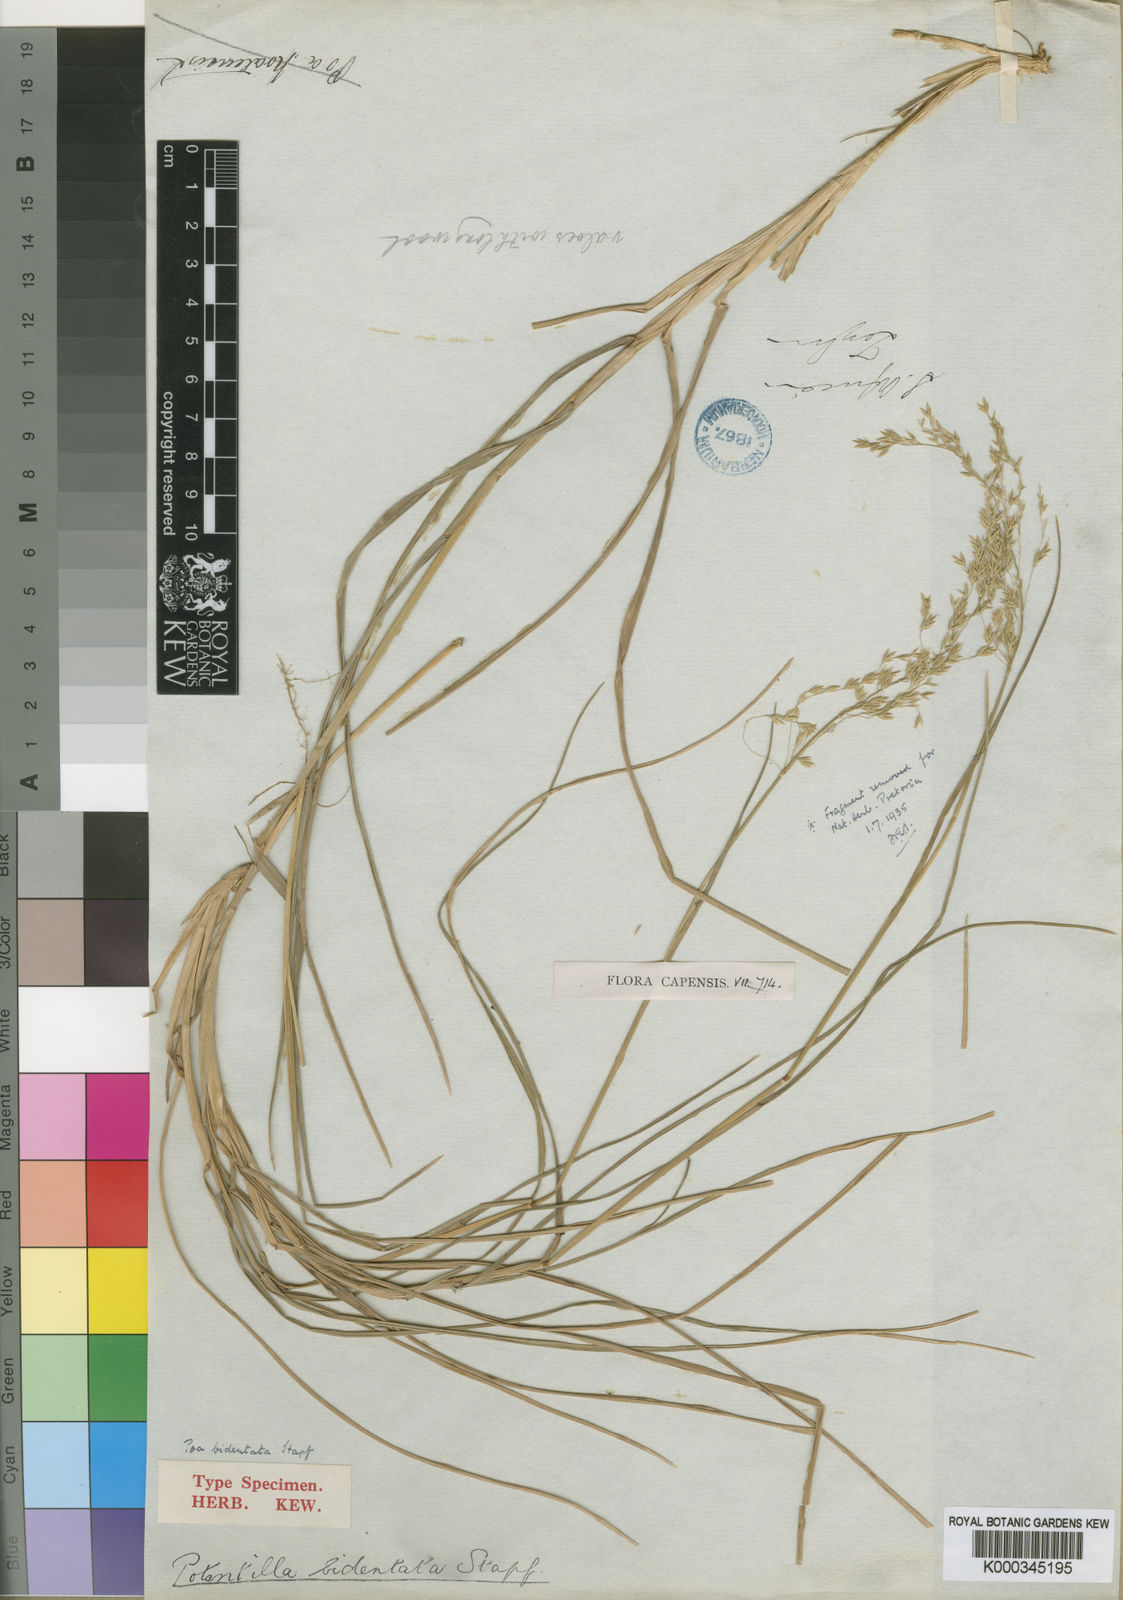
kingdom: Plantae
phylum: Tracheophyta
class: Liliopsida
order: Poales
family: Poaceae
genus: Poa
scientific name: Poa bulbosa
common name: Bulbous bluegrass
